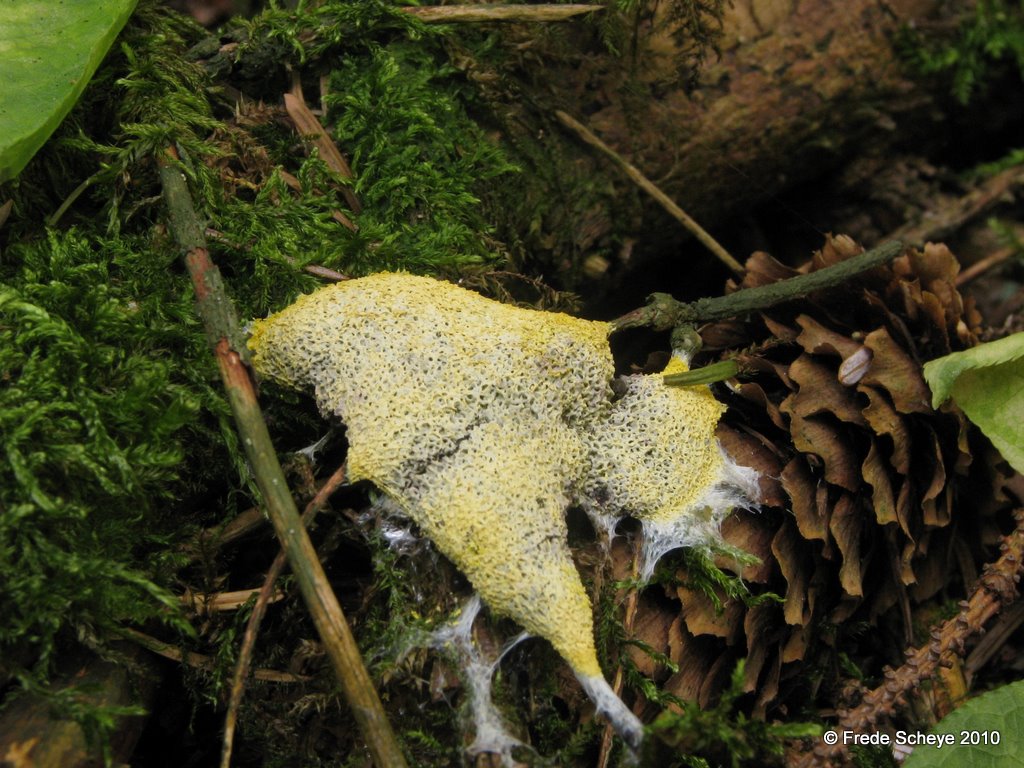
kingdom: Protozoa
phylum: Mycetozoa
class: Myxomycetes
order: Physarales
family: Physaraceae
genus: Fuligo
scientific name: Fuligo septica
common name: gul troldsmør
